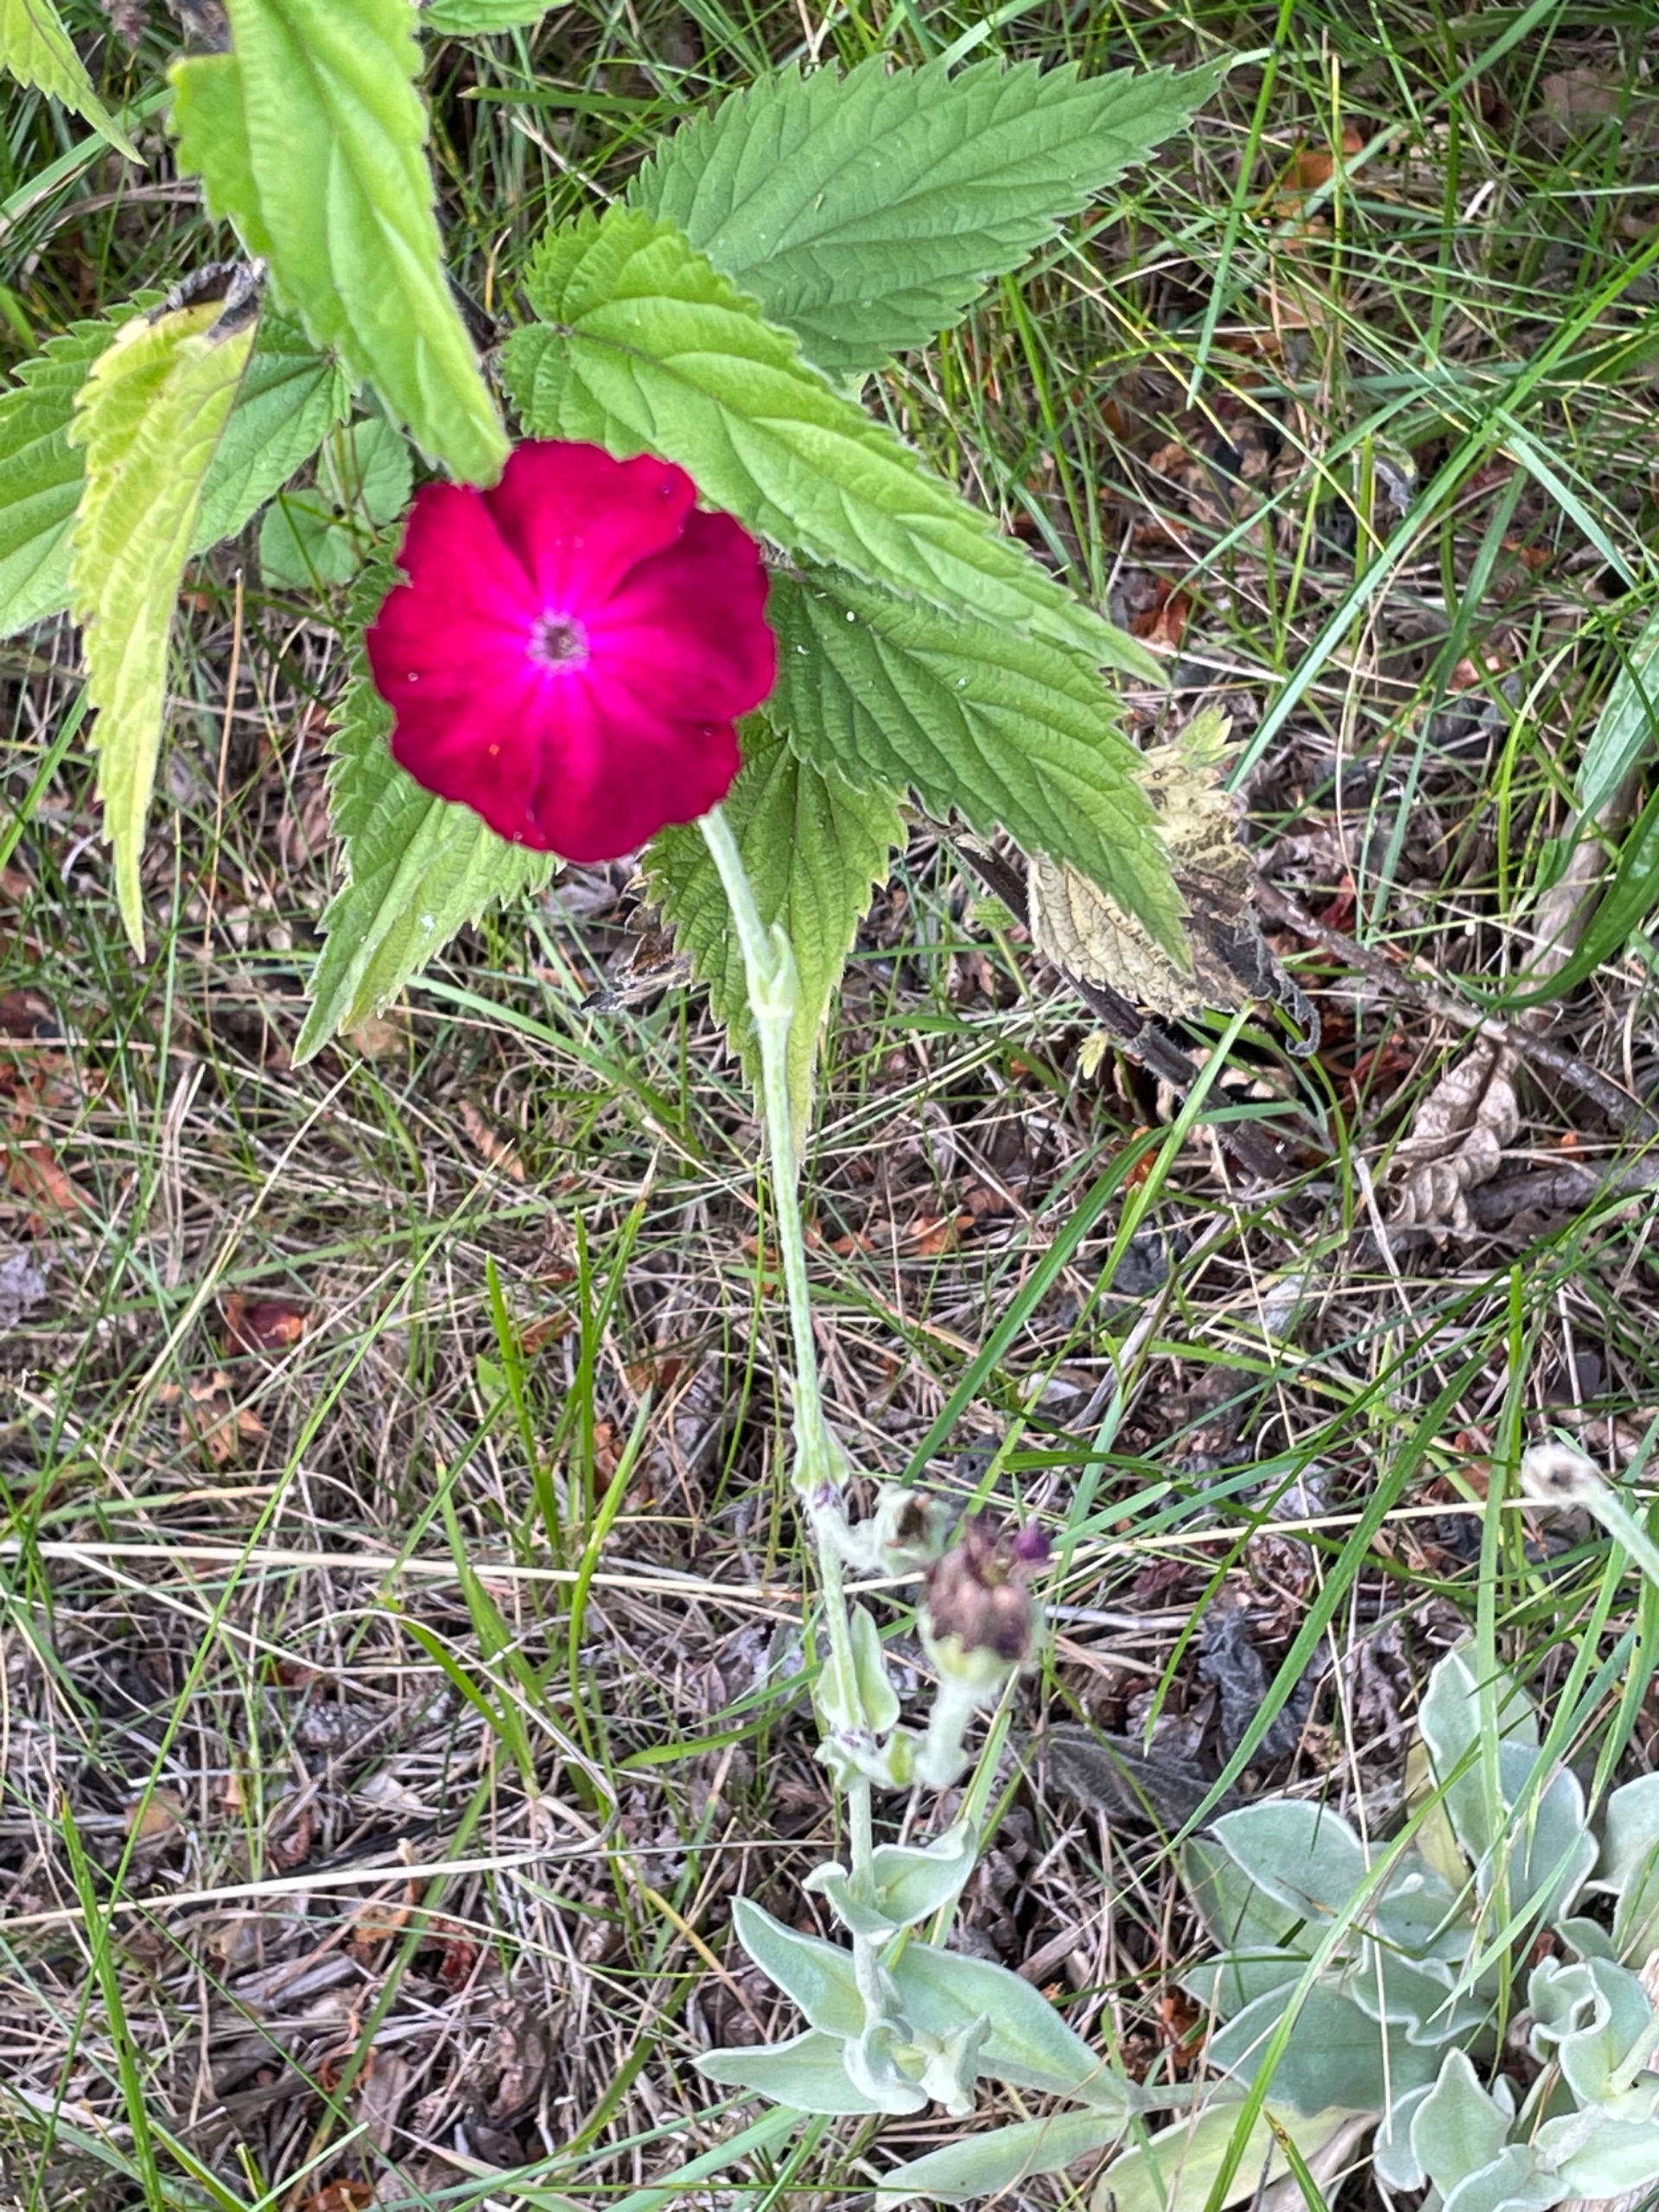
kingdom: Plantae
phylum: Tracheophyta
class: Magnoliopsida
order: Caryophyllales
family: Caryophyllaceae
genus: Silene
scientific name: Silene coronaria
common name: Fiksernellike
